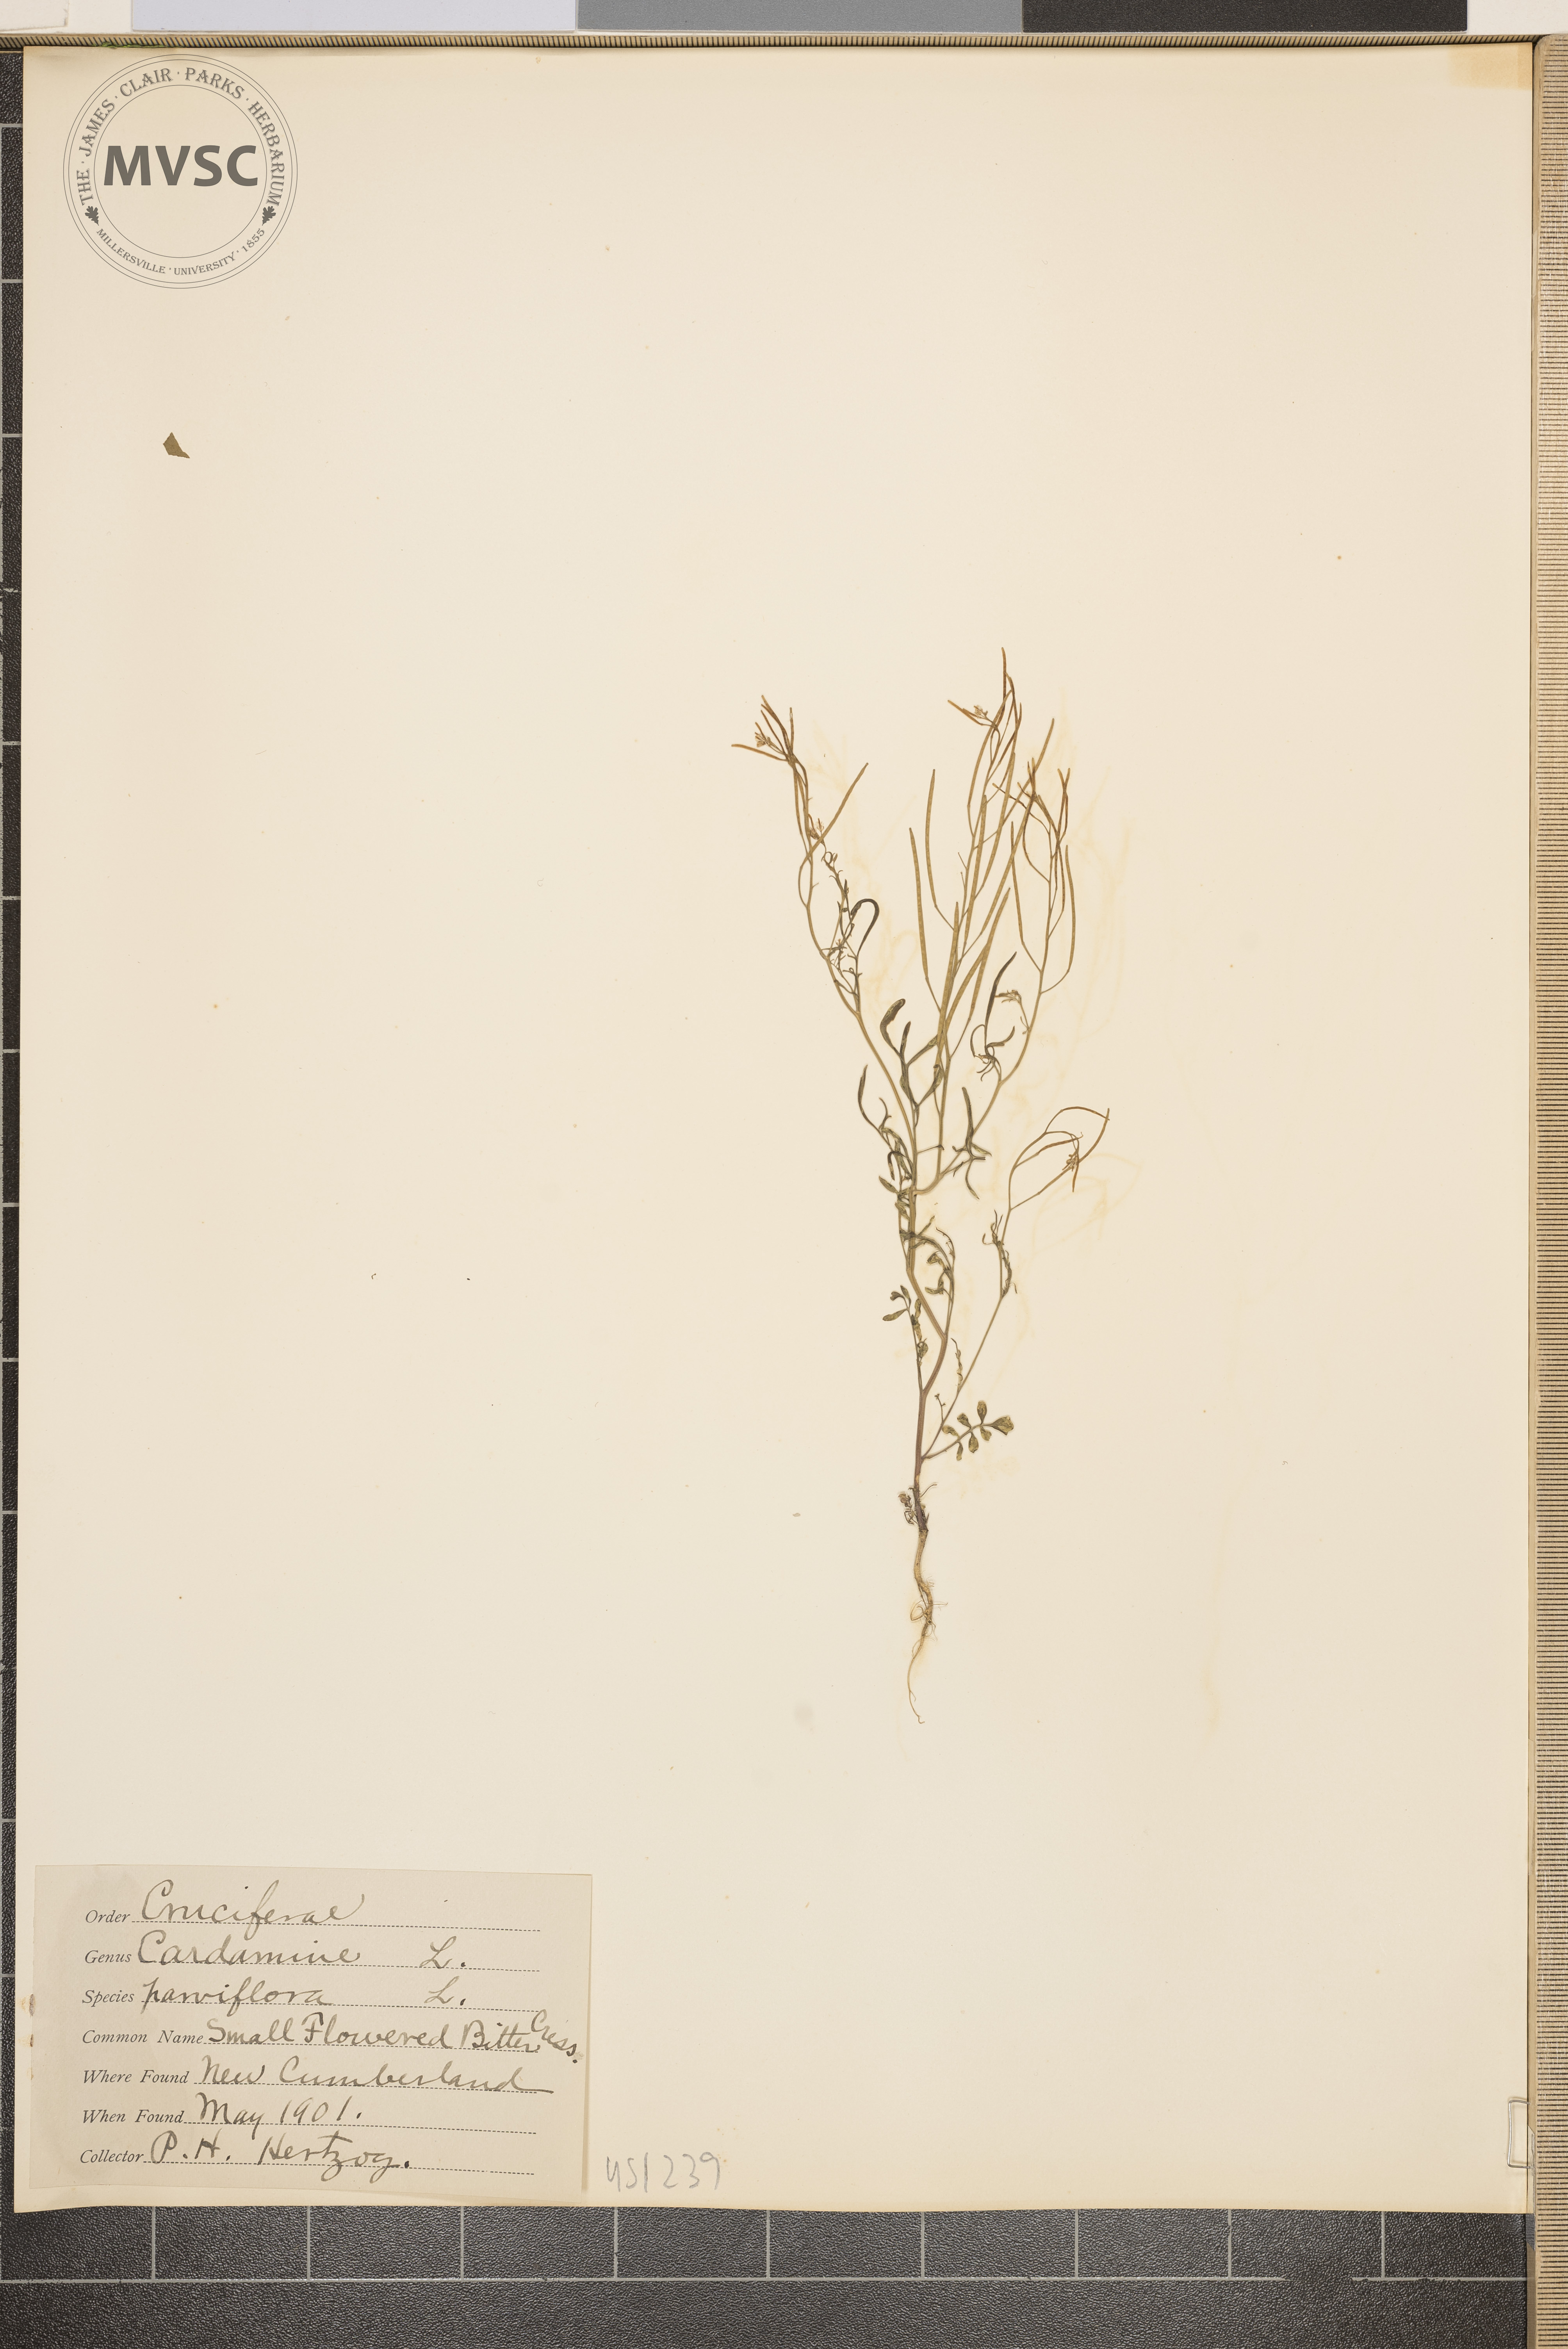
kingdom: Plantae
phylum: Tracheophyta
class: Magnoliopsida
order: Brassicales
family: Brassicaceae
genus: Cardamine
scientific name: Cardamine parviflora
